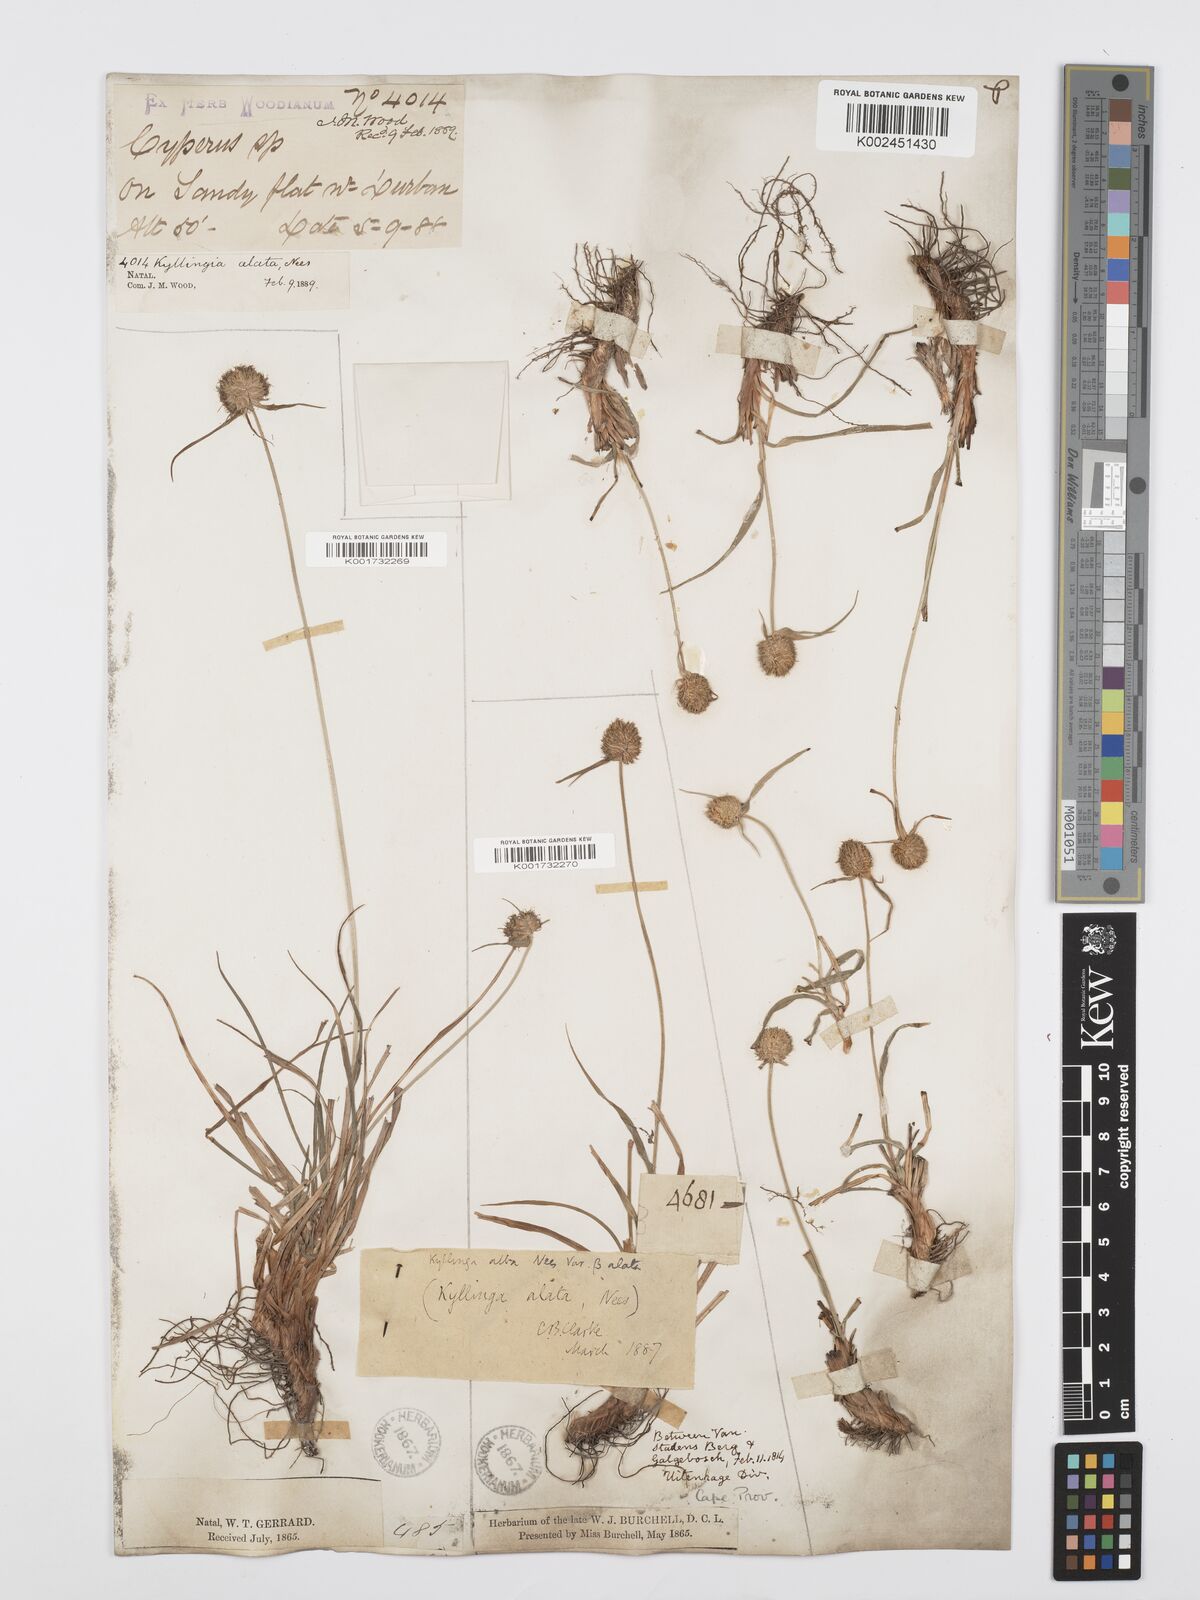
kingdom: Plantae
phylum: Tracheophyta
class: Liliopsida
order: Poales
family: Cyperaceae
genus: Cyperus
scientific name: Cyperus alatus
